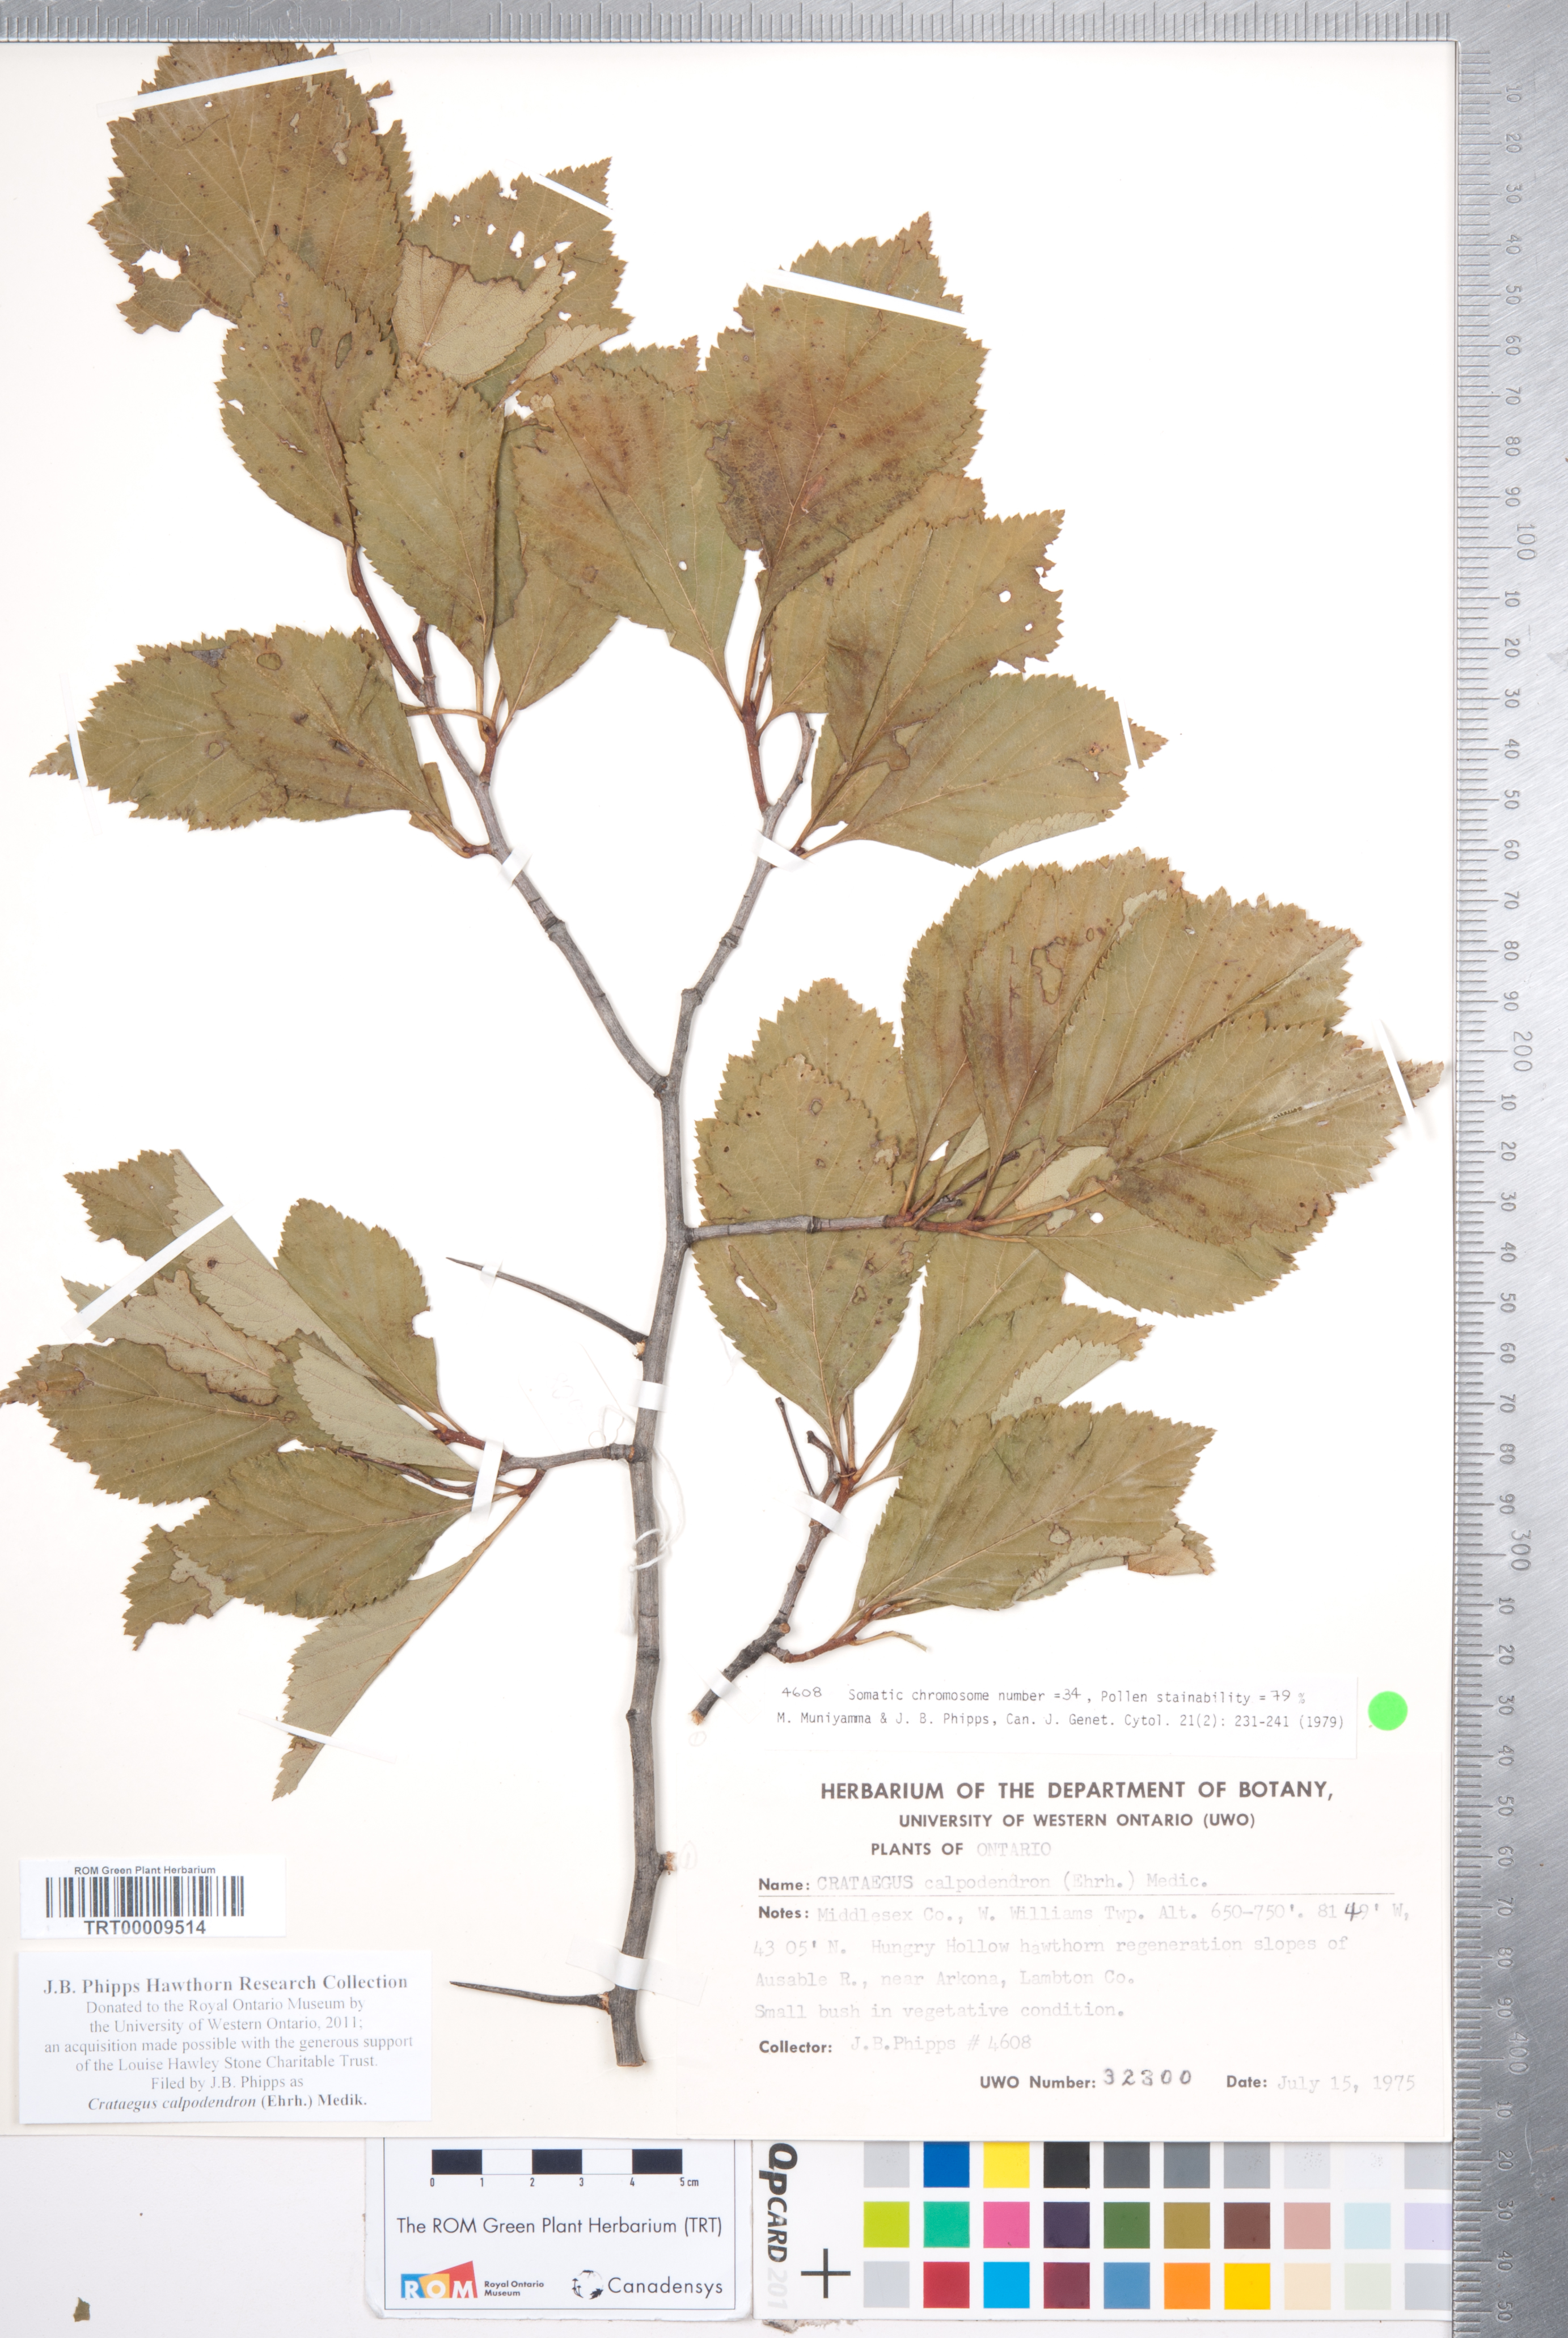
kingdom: Plantae
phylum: Tracheophyta
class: Magnoliopsida
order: Rosales
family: Rosaceae
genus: Crataegus
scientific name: Crataegus calpodendron
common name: Pear hawthorn
